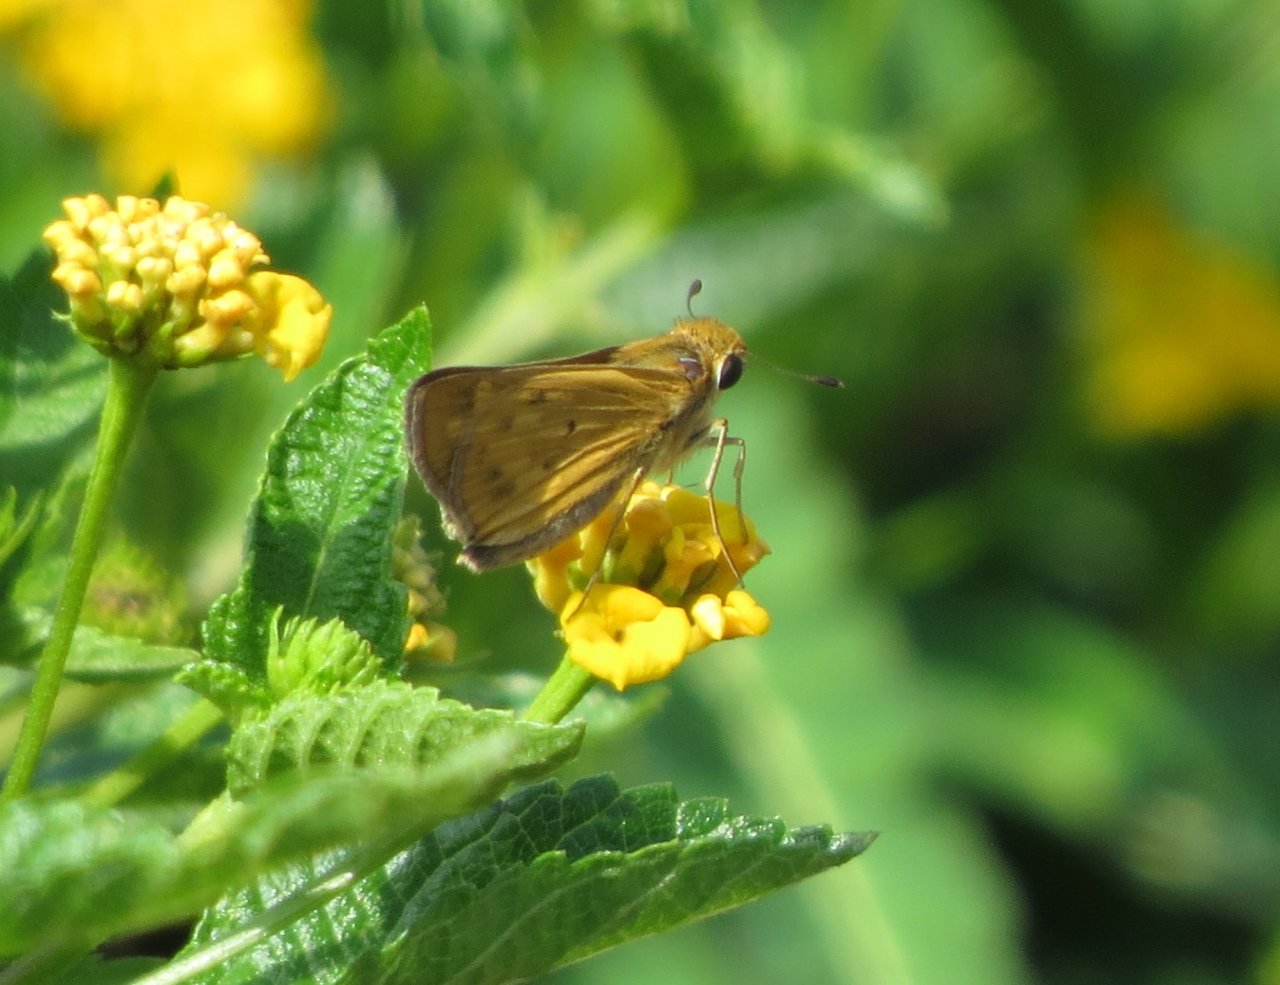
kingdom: Animalia
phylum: Arthropoda
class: Insecta
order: Lepidoptera
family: Hesperiidae
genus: Hylephila
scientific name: Hylephila phyleus
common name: Fiery Skipper
